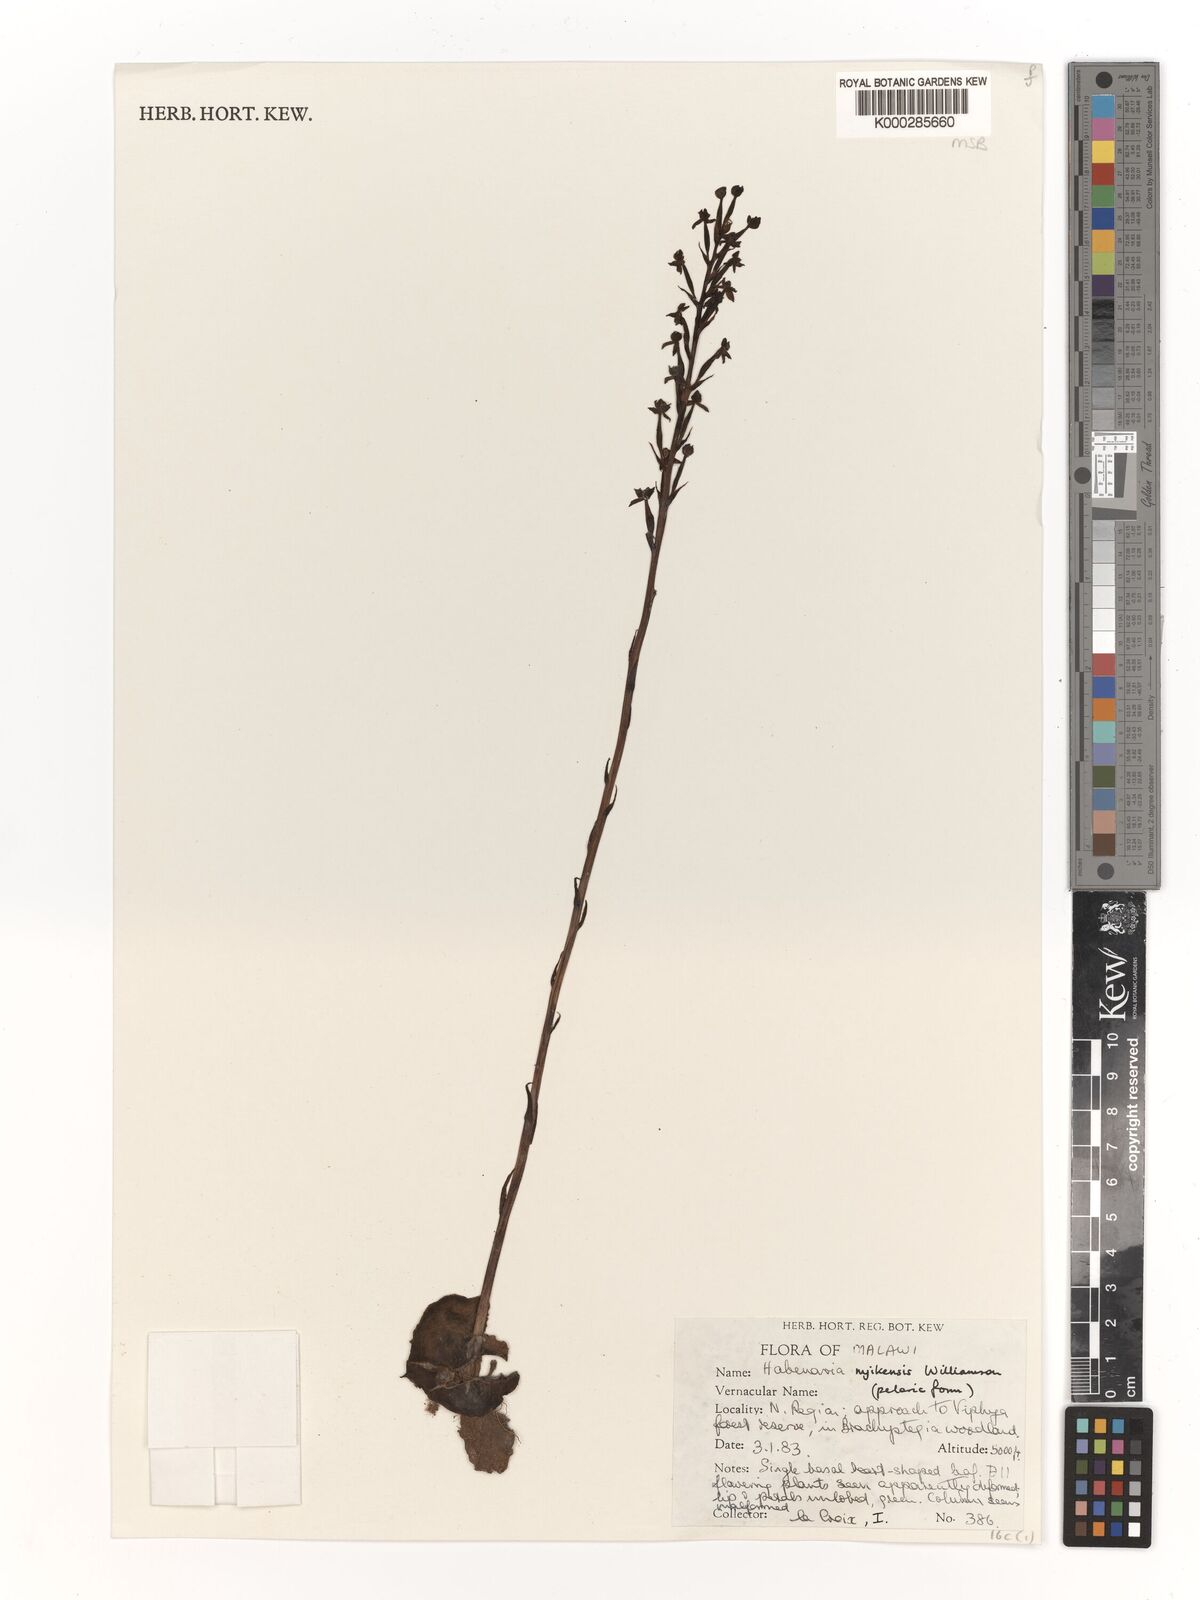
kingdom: Plantae
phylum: Tracheophyta
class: Liliopsida
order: Asparagales
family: Orchidaceae
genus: Habenaria
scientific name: Habenaria nyikensis
